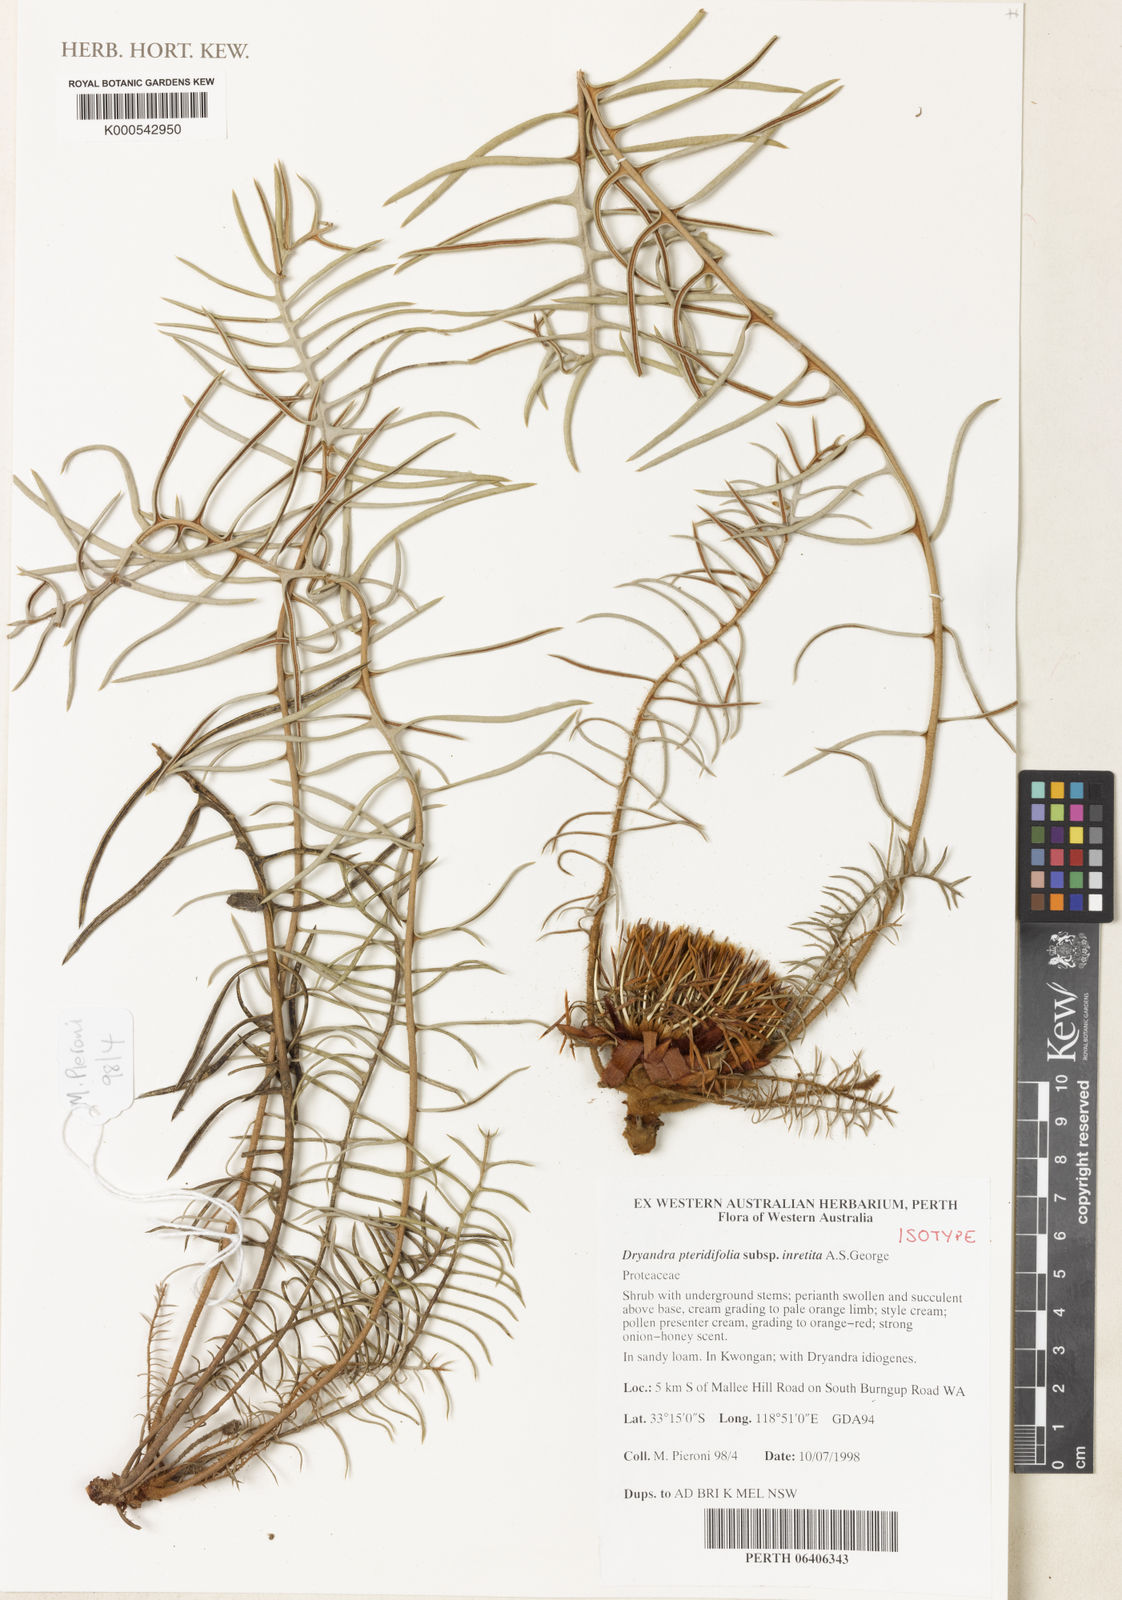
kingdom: Plantae
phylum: Tracheophyta
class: Magnoliopsida
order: Proteales
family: Proteaceae
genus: Banksia
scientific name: Banksia pteridifolia
